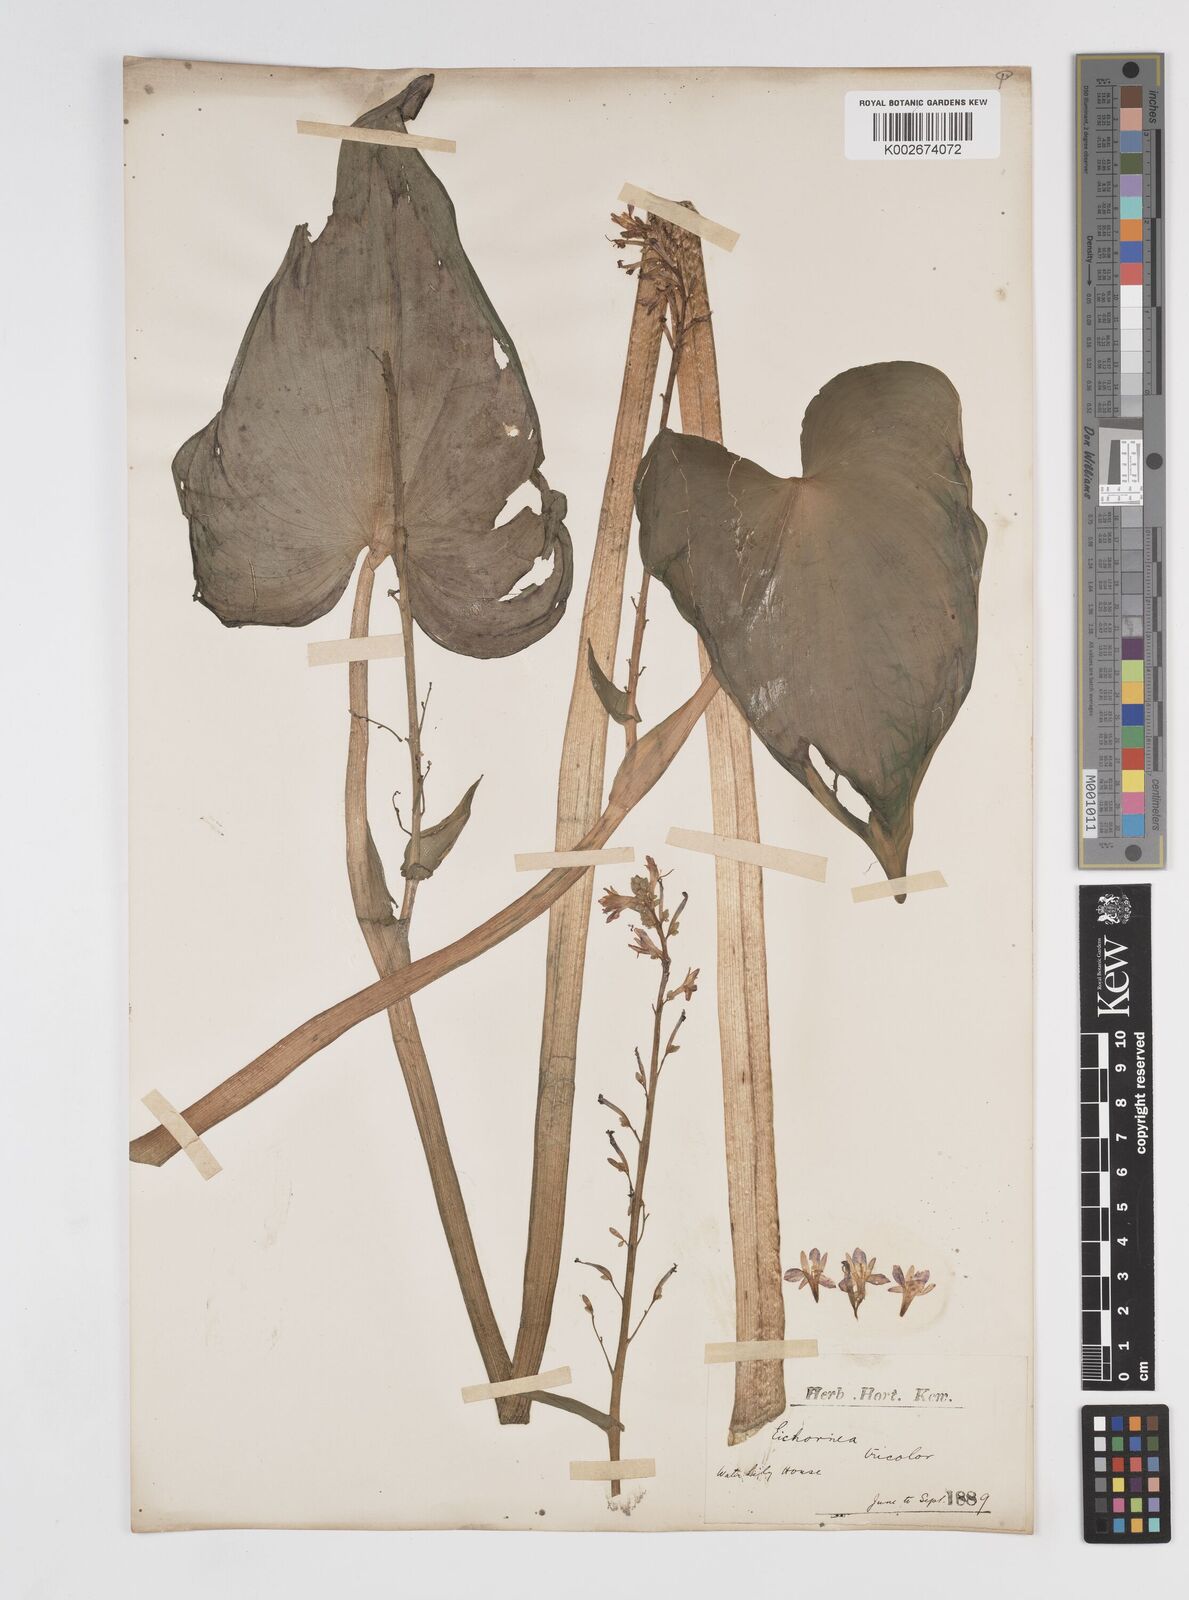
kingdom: Plantae
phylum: Tracheophyta
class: Liliopsida
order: Commelinales
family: Pontederiaceae
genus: Pontederia
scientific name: Pontederia paniculata
